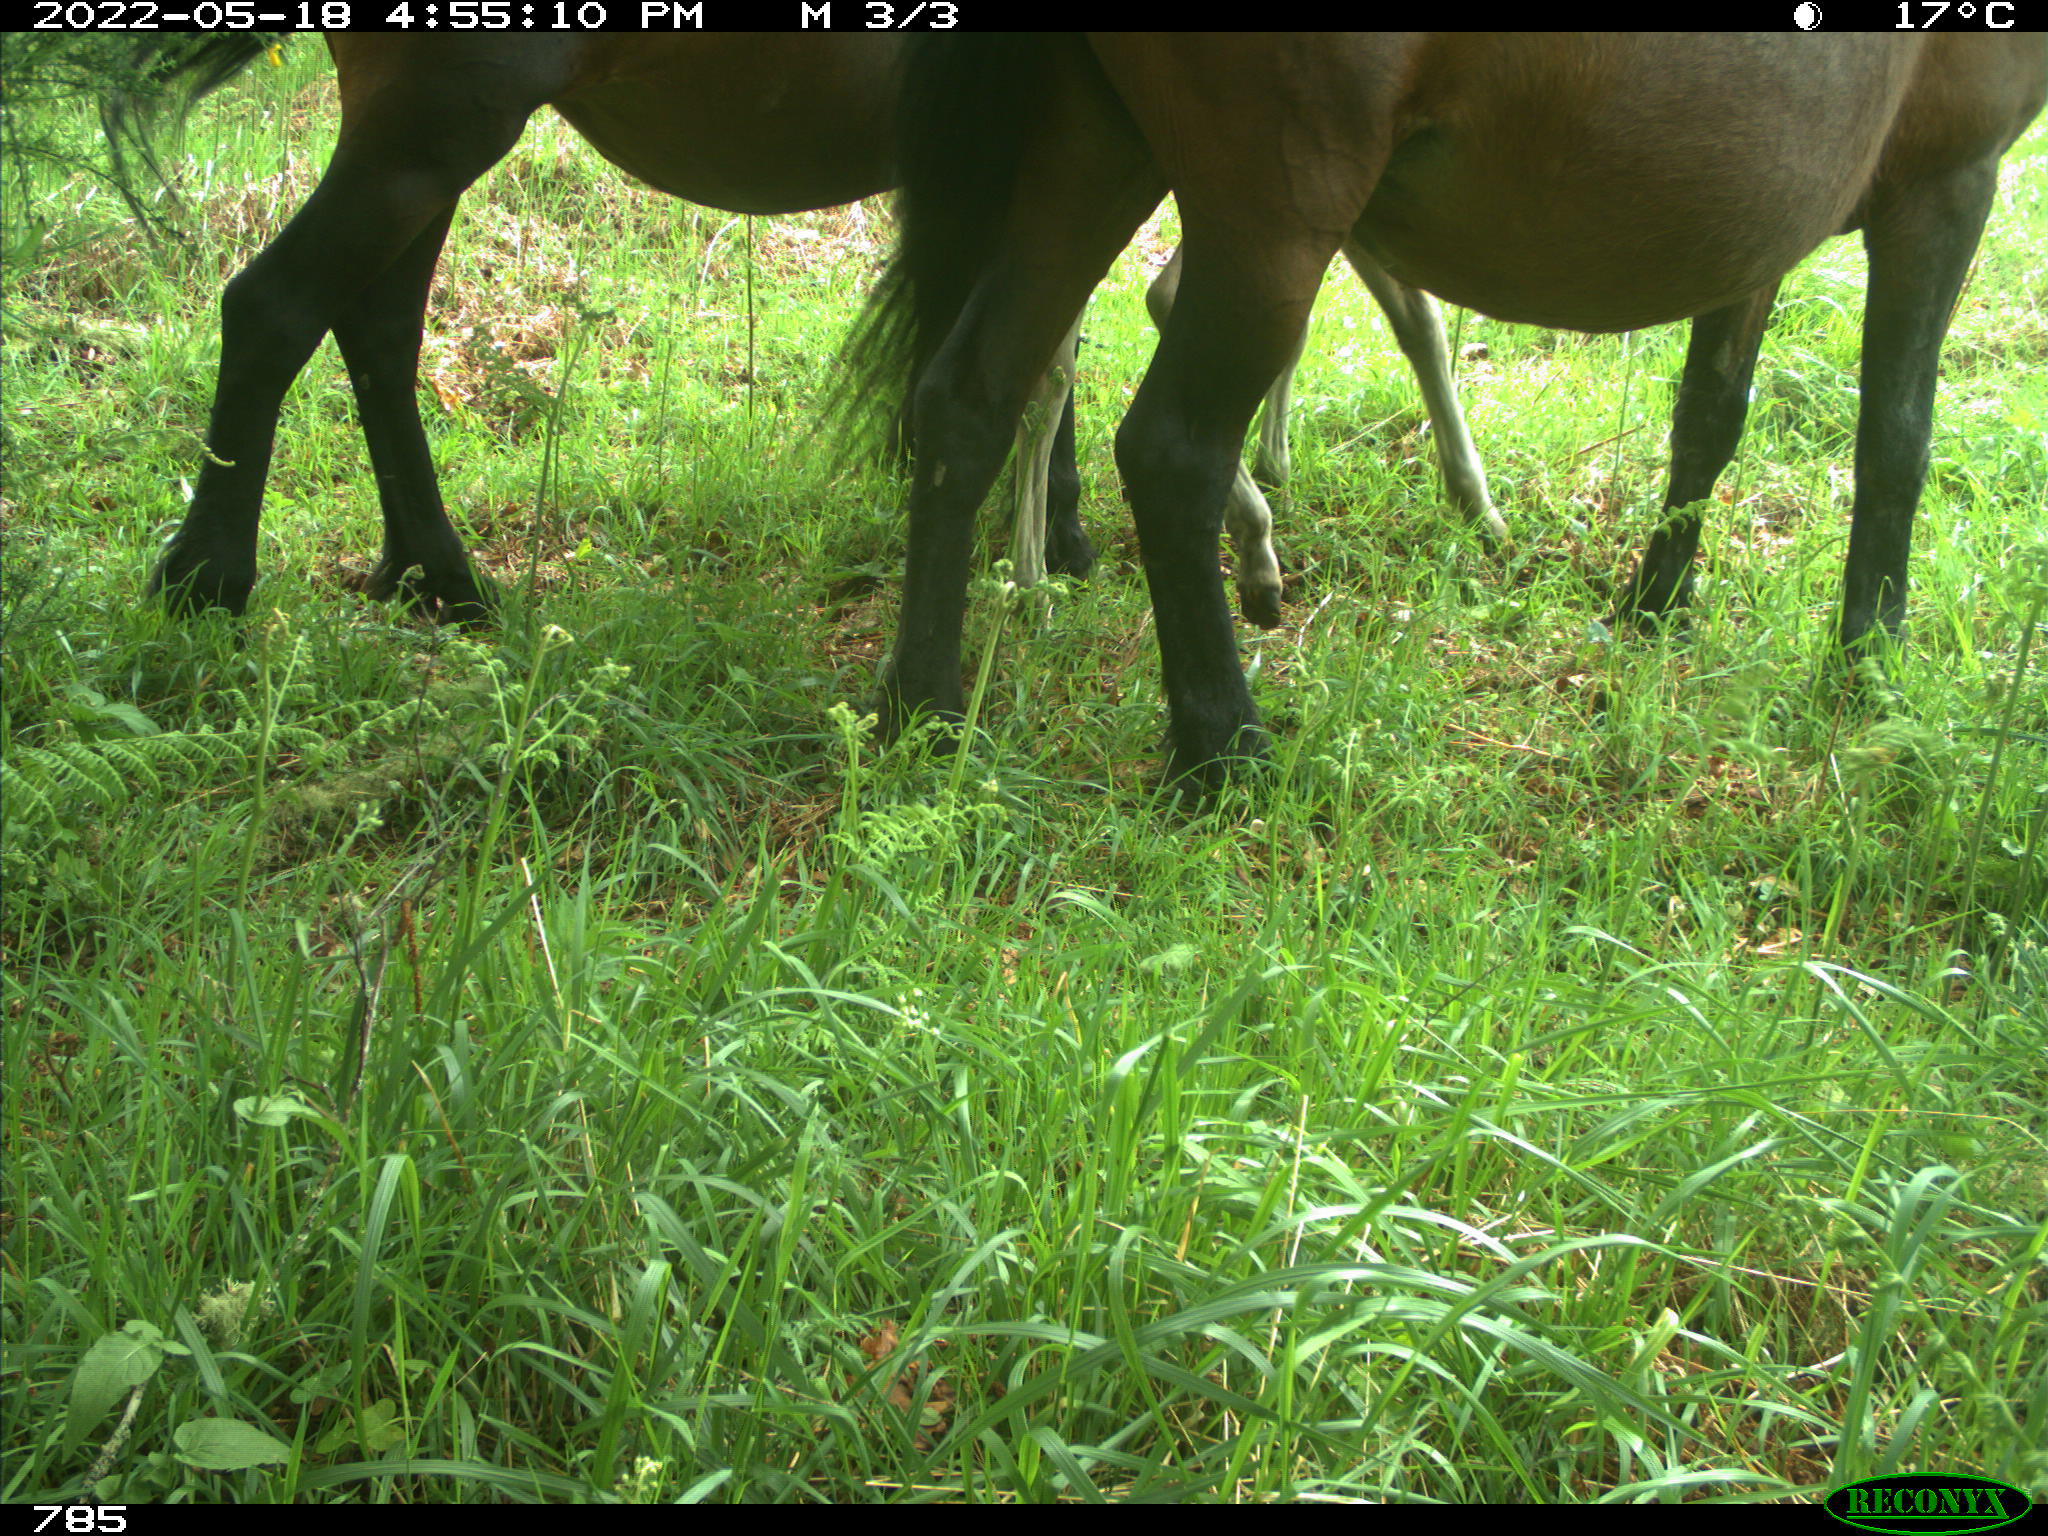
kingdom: Animalia
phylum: Chordata
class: Mammalia
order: Perissodactyla
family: Equidae
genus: Equus
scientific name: Equus caballus
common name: Horse
